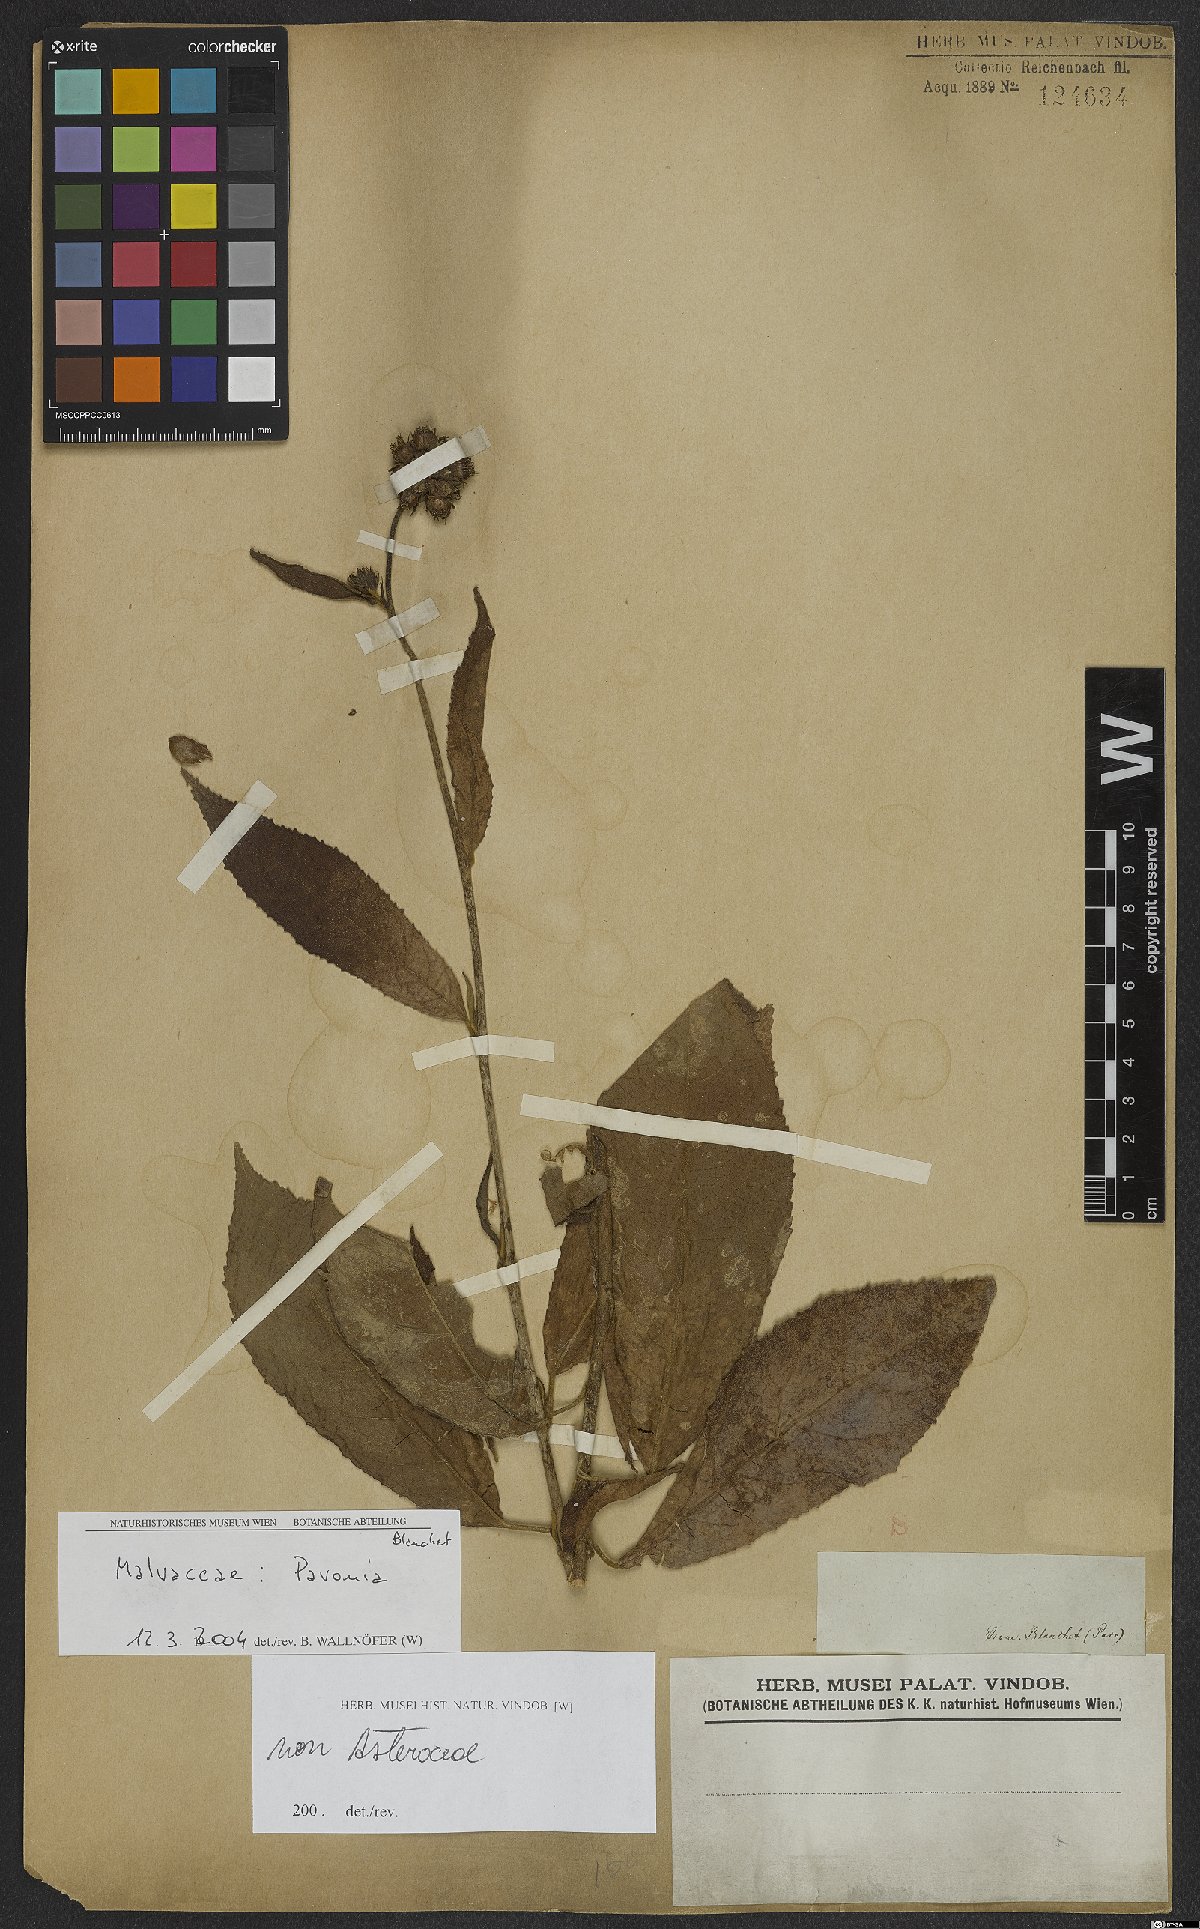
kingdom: Plantae
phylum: Tracheophyta
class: Magnoliopsida
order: Malvales
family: Malvaceae
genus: Pavonia
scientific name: Pavonia
